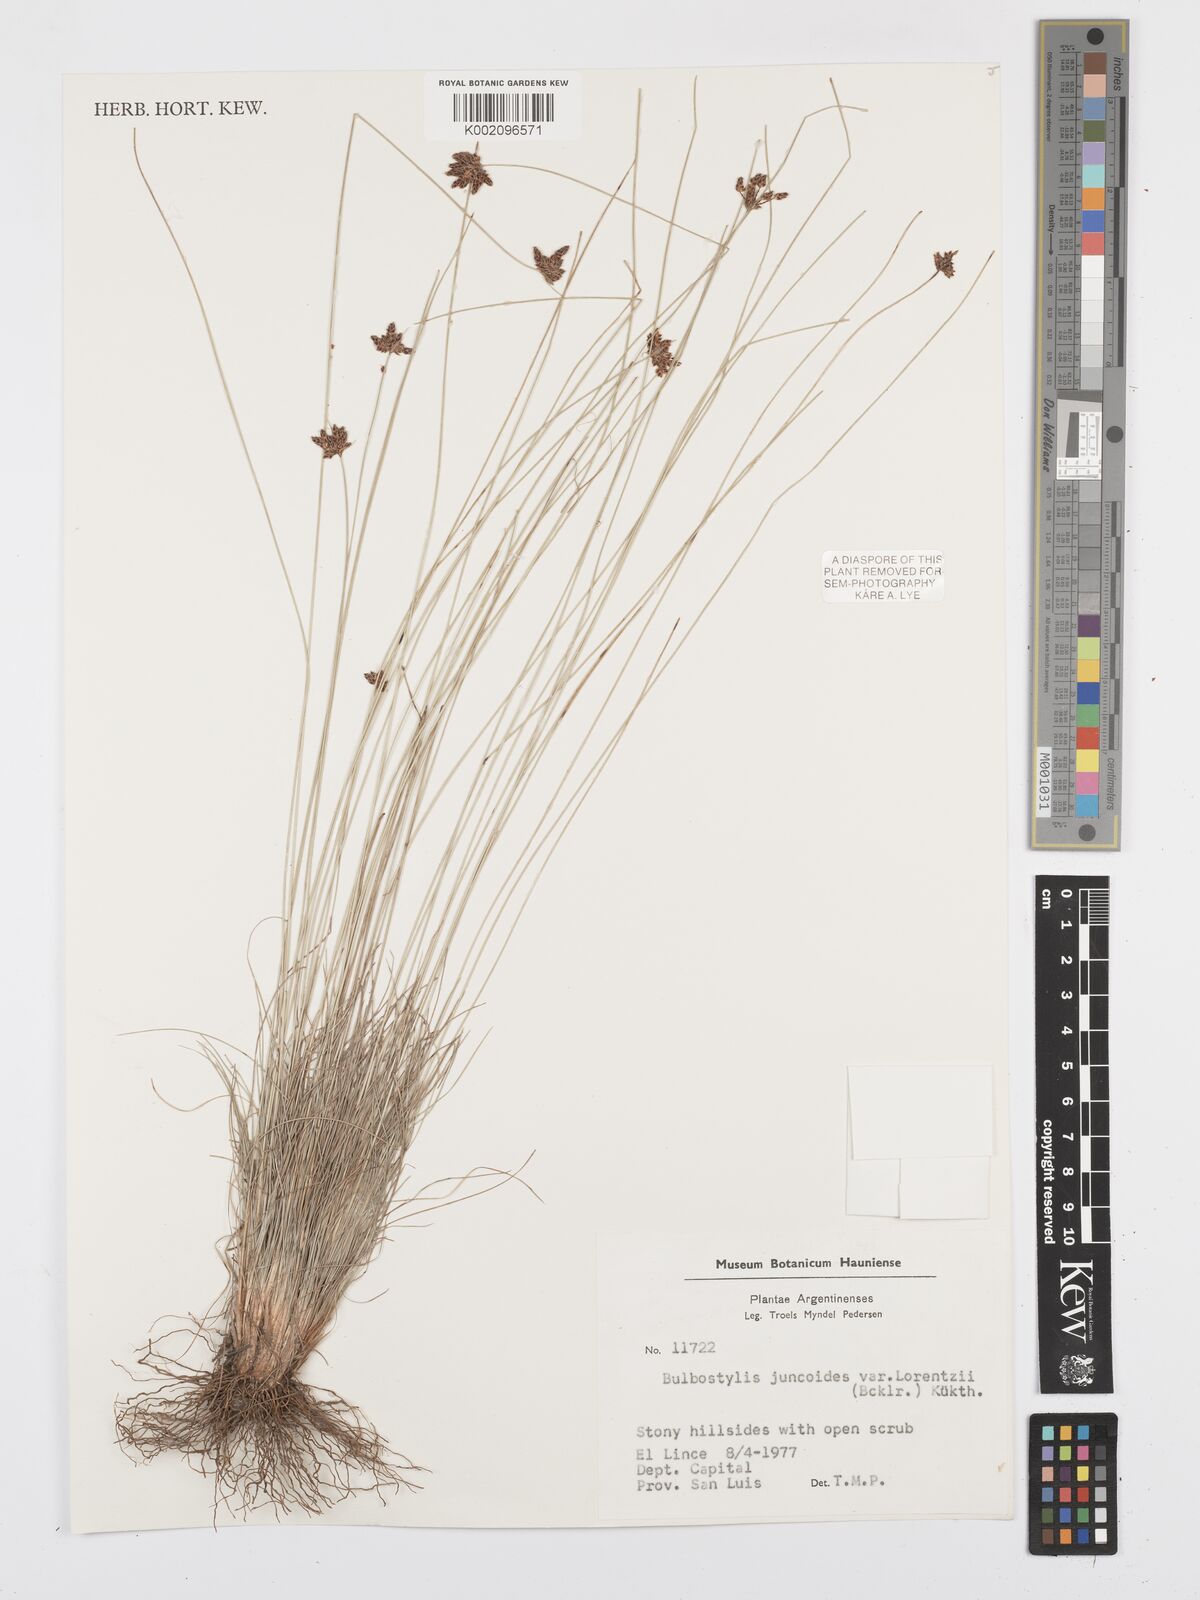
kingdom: Plantae
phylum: Tracheophyta
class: Liliopsida
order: Poales
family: Cyperaceae
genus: Bulbostylis
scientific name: Bulbostylis juncoides
